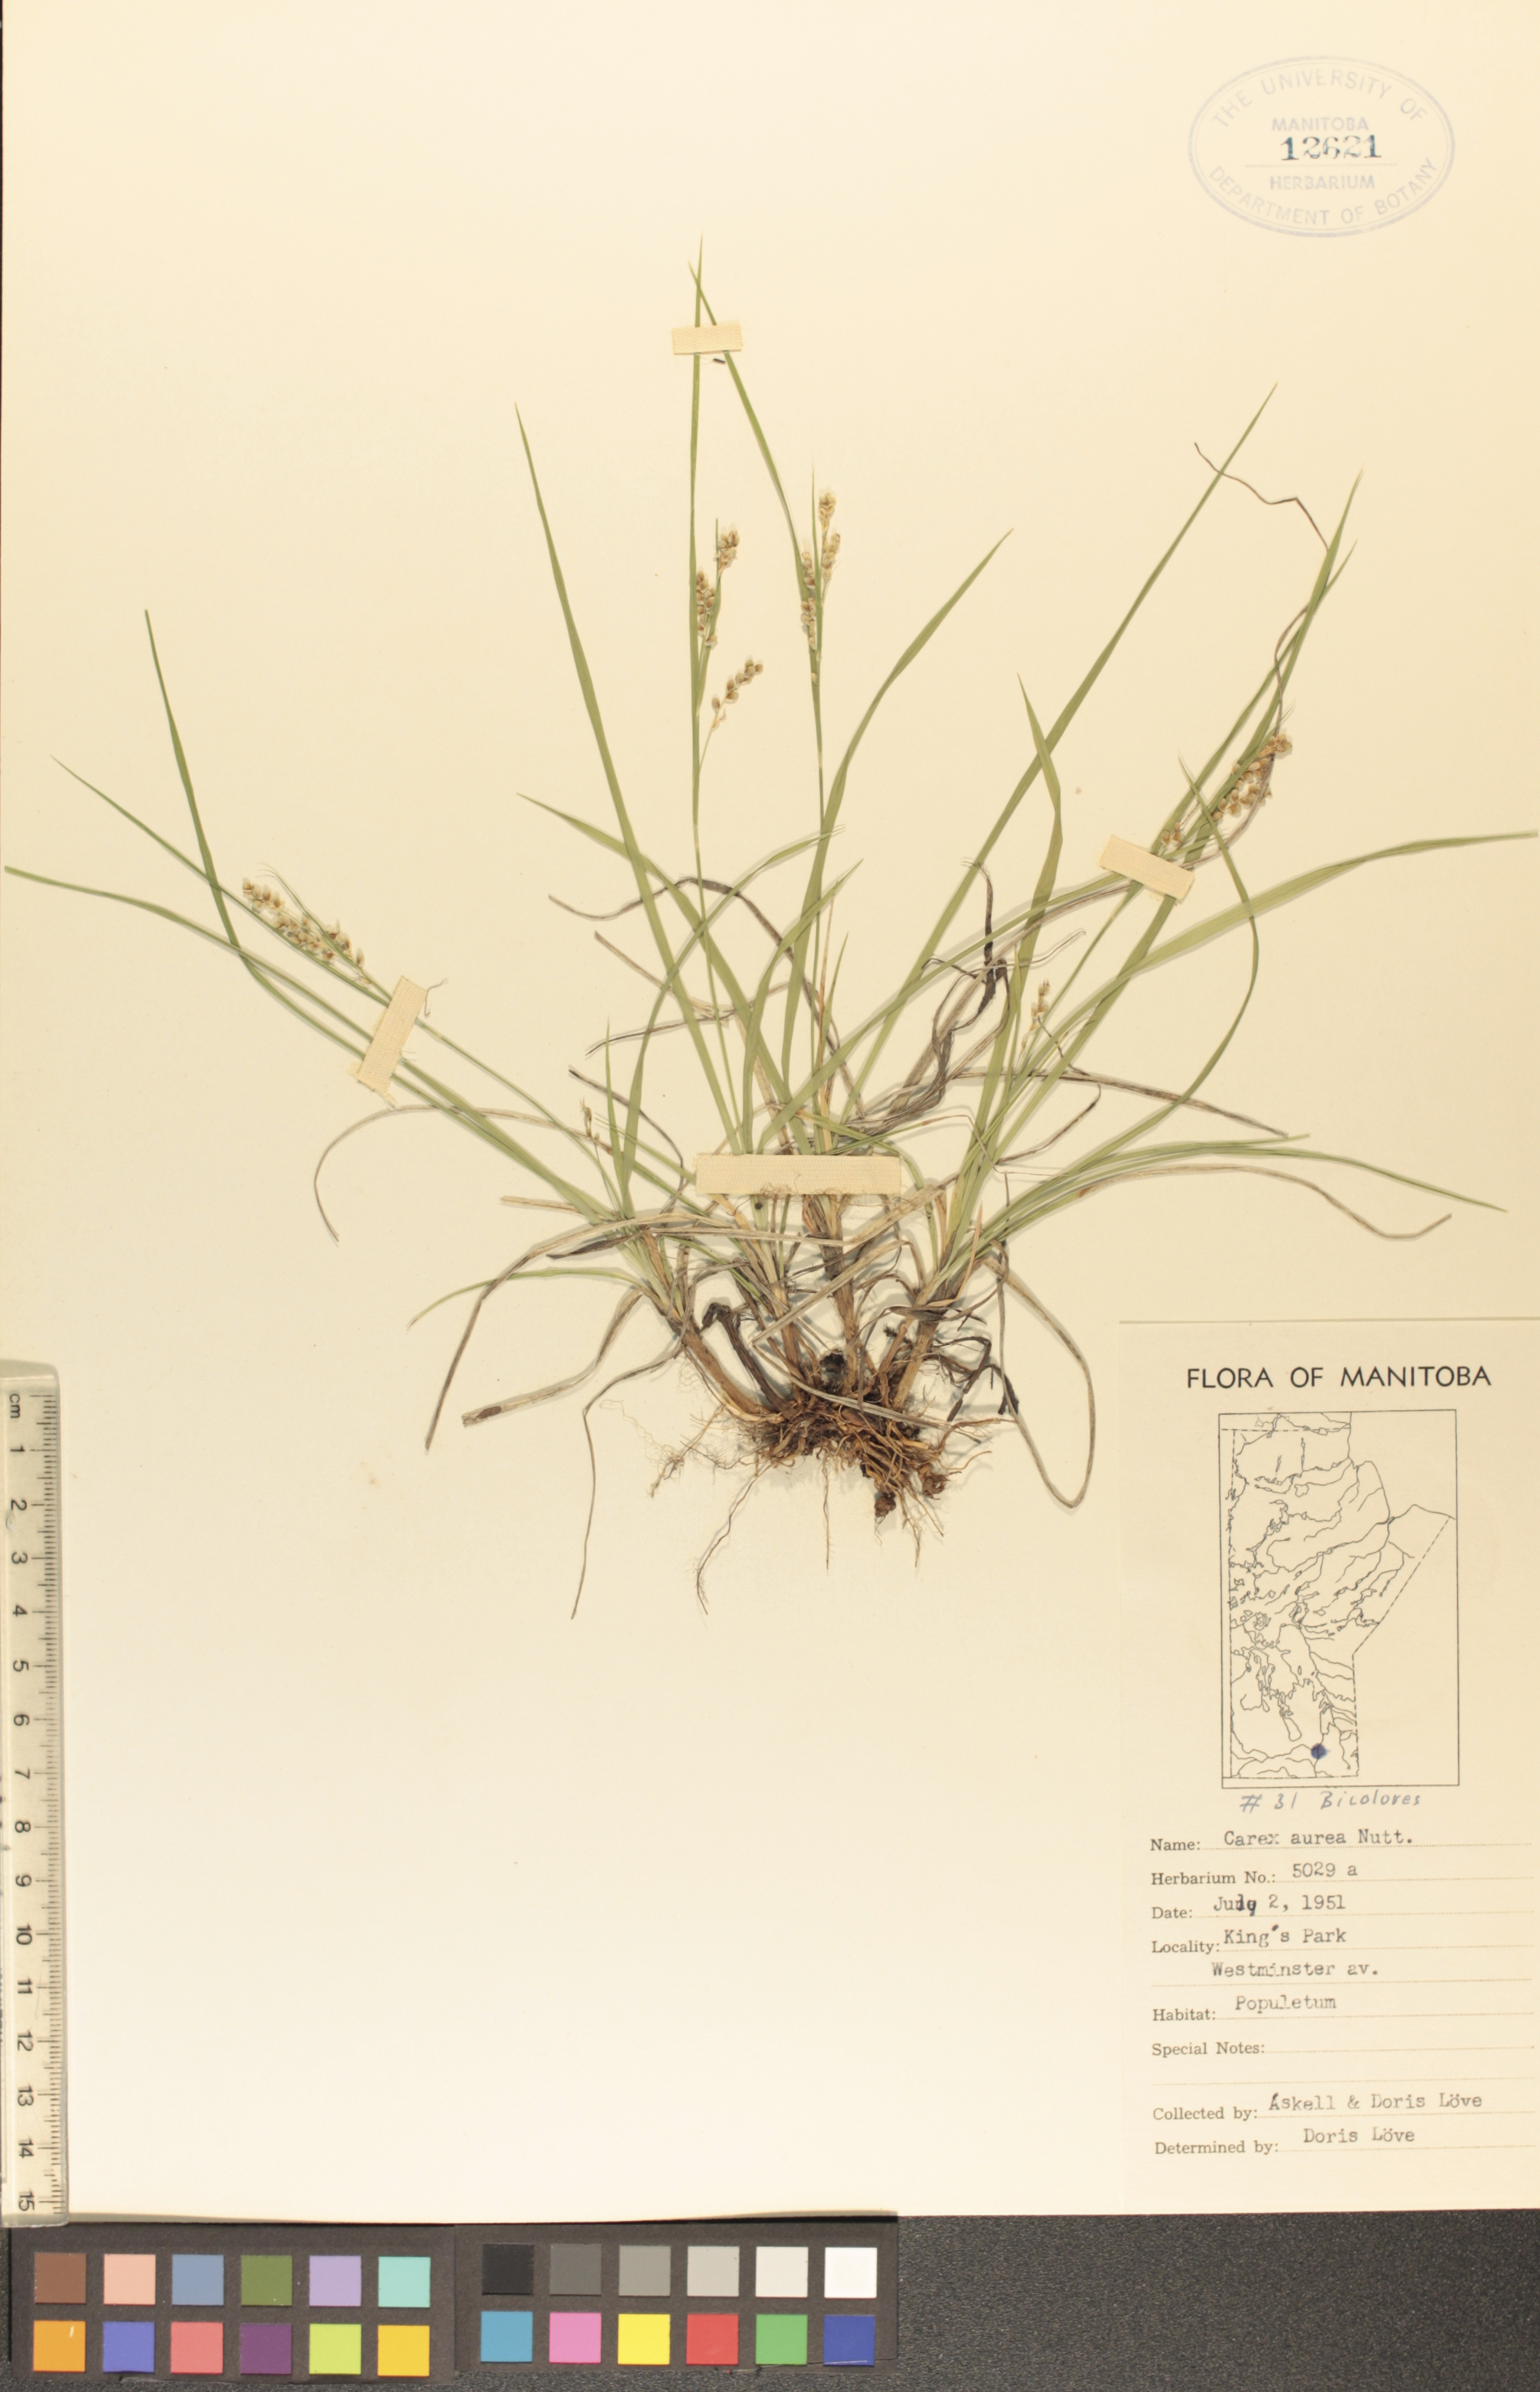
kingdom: Plantae
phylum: Tracheophyta
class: Liliopsida
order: Poales
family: Cyperaceae
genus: Carex
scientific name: Carex aurea
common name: Golden sedge
